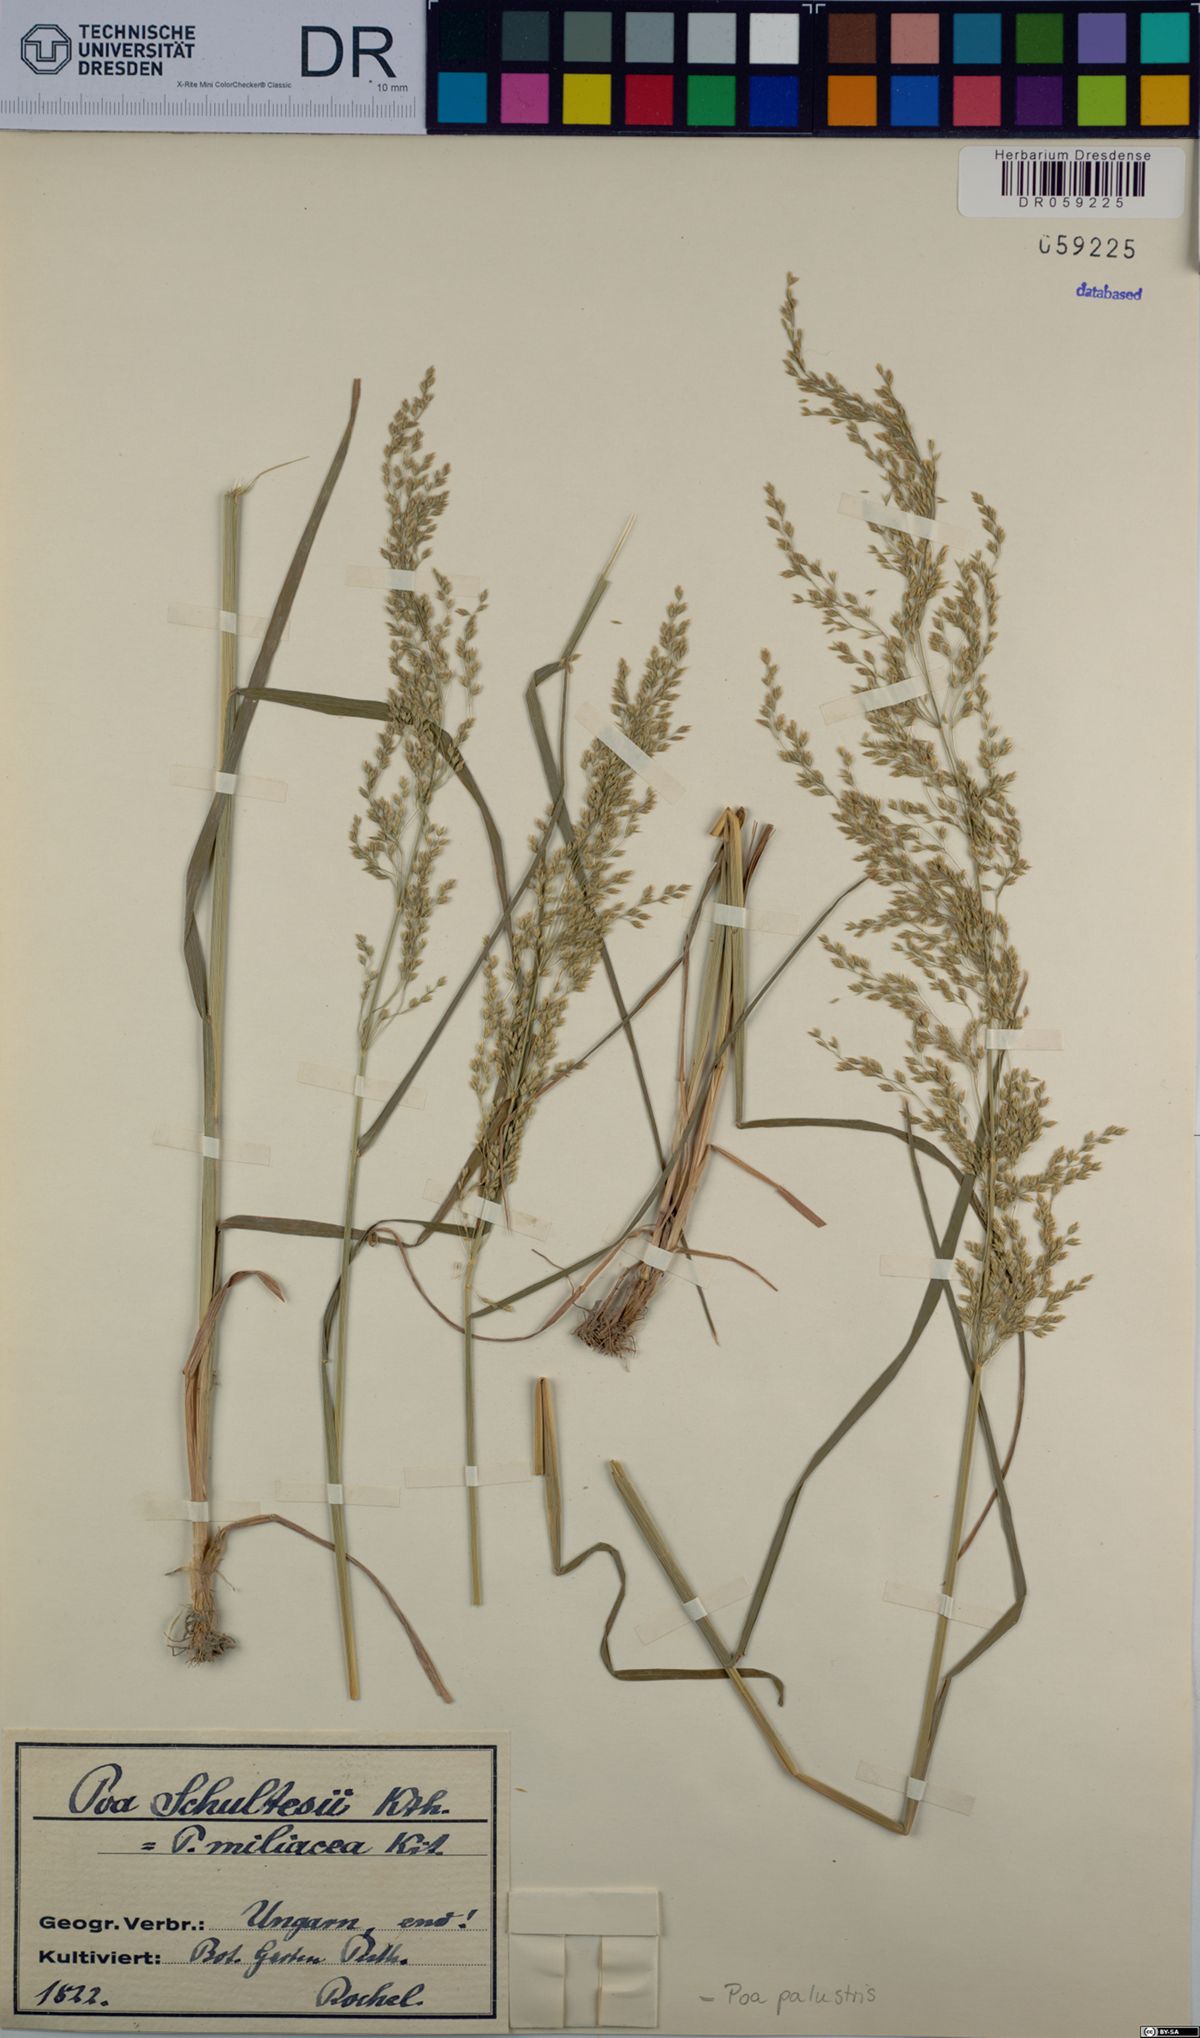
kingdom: Plantae
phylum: Tracheophyta
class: Liliopsida
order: Poales
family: Poaceae
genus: Poa
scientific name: Poa palustris
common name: Swamp meadow-grass
